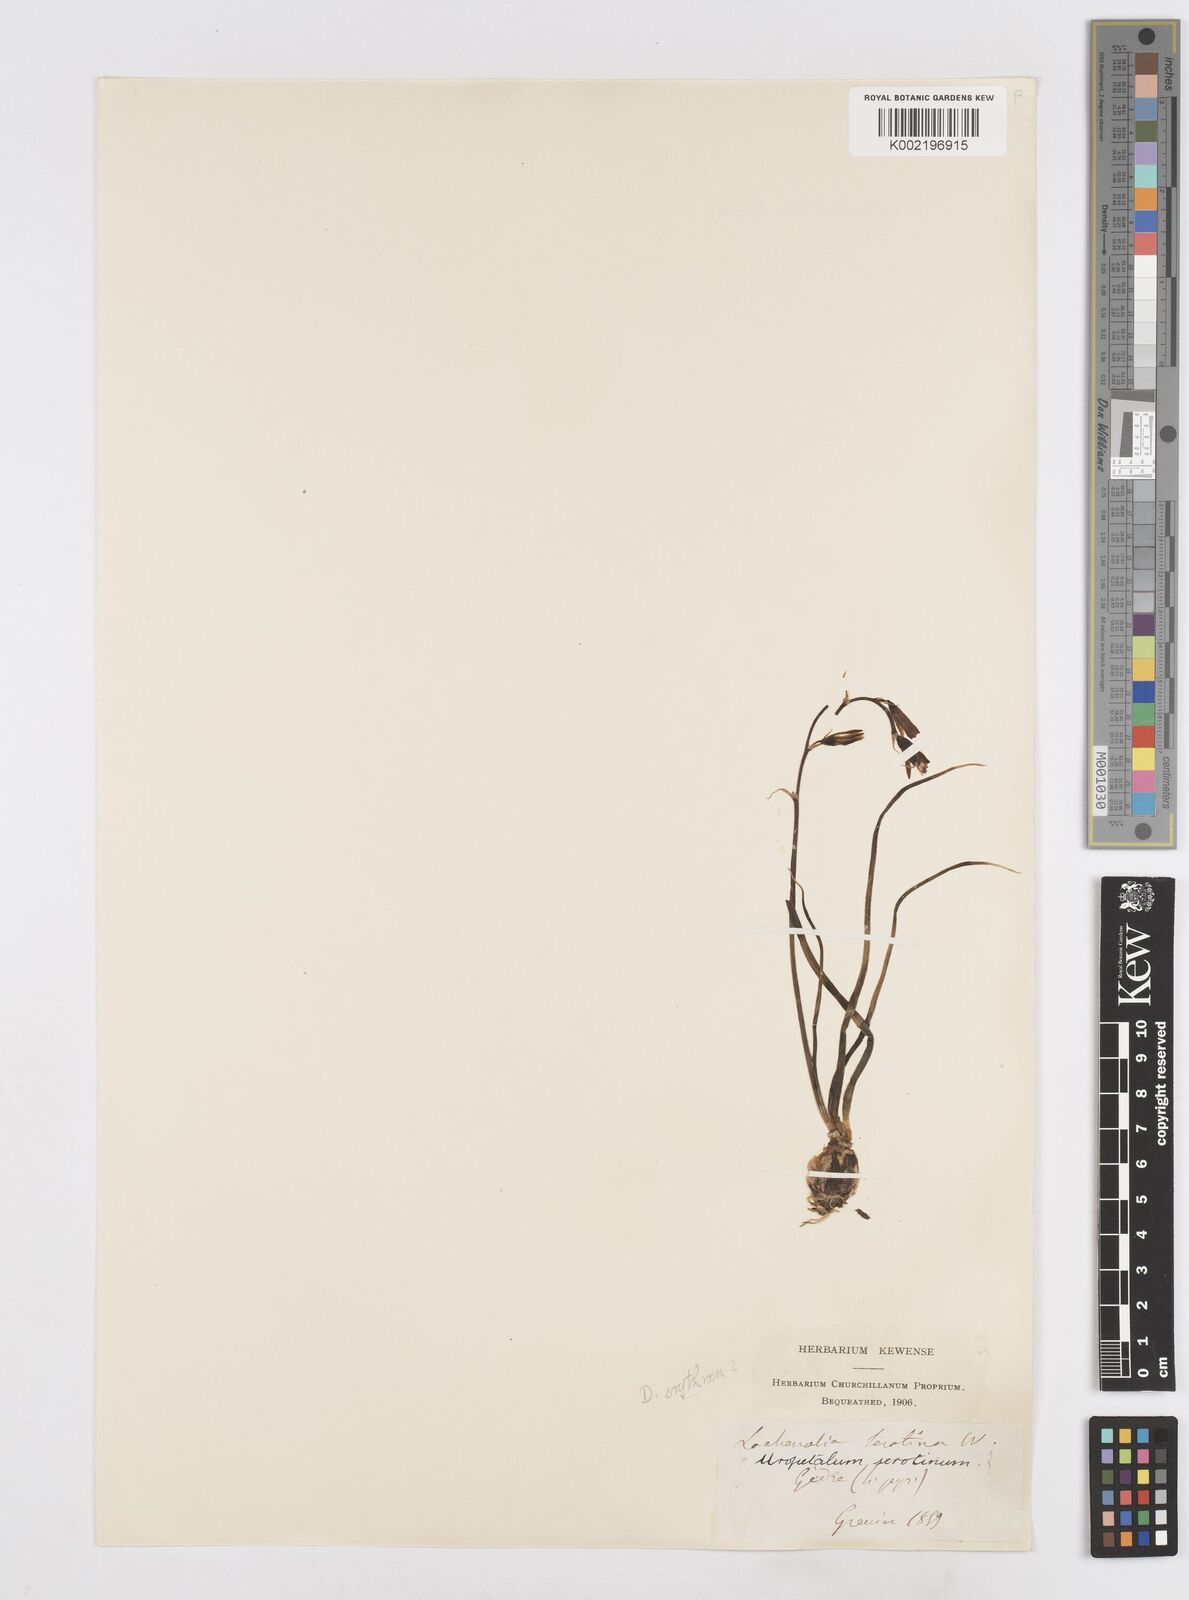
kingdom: Plantae
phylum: Tracheophyta
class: Liliopsida
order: Asparagales
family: Asparagaceae
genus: Dipcadi
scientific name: Dipcadi serotinum
